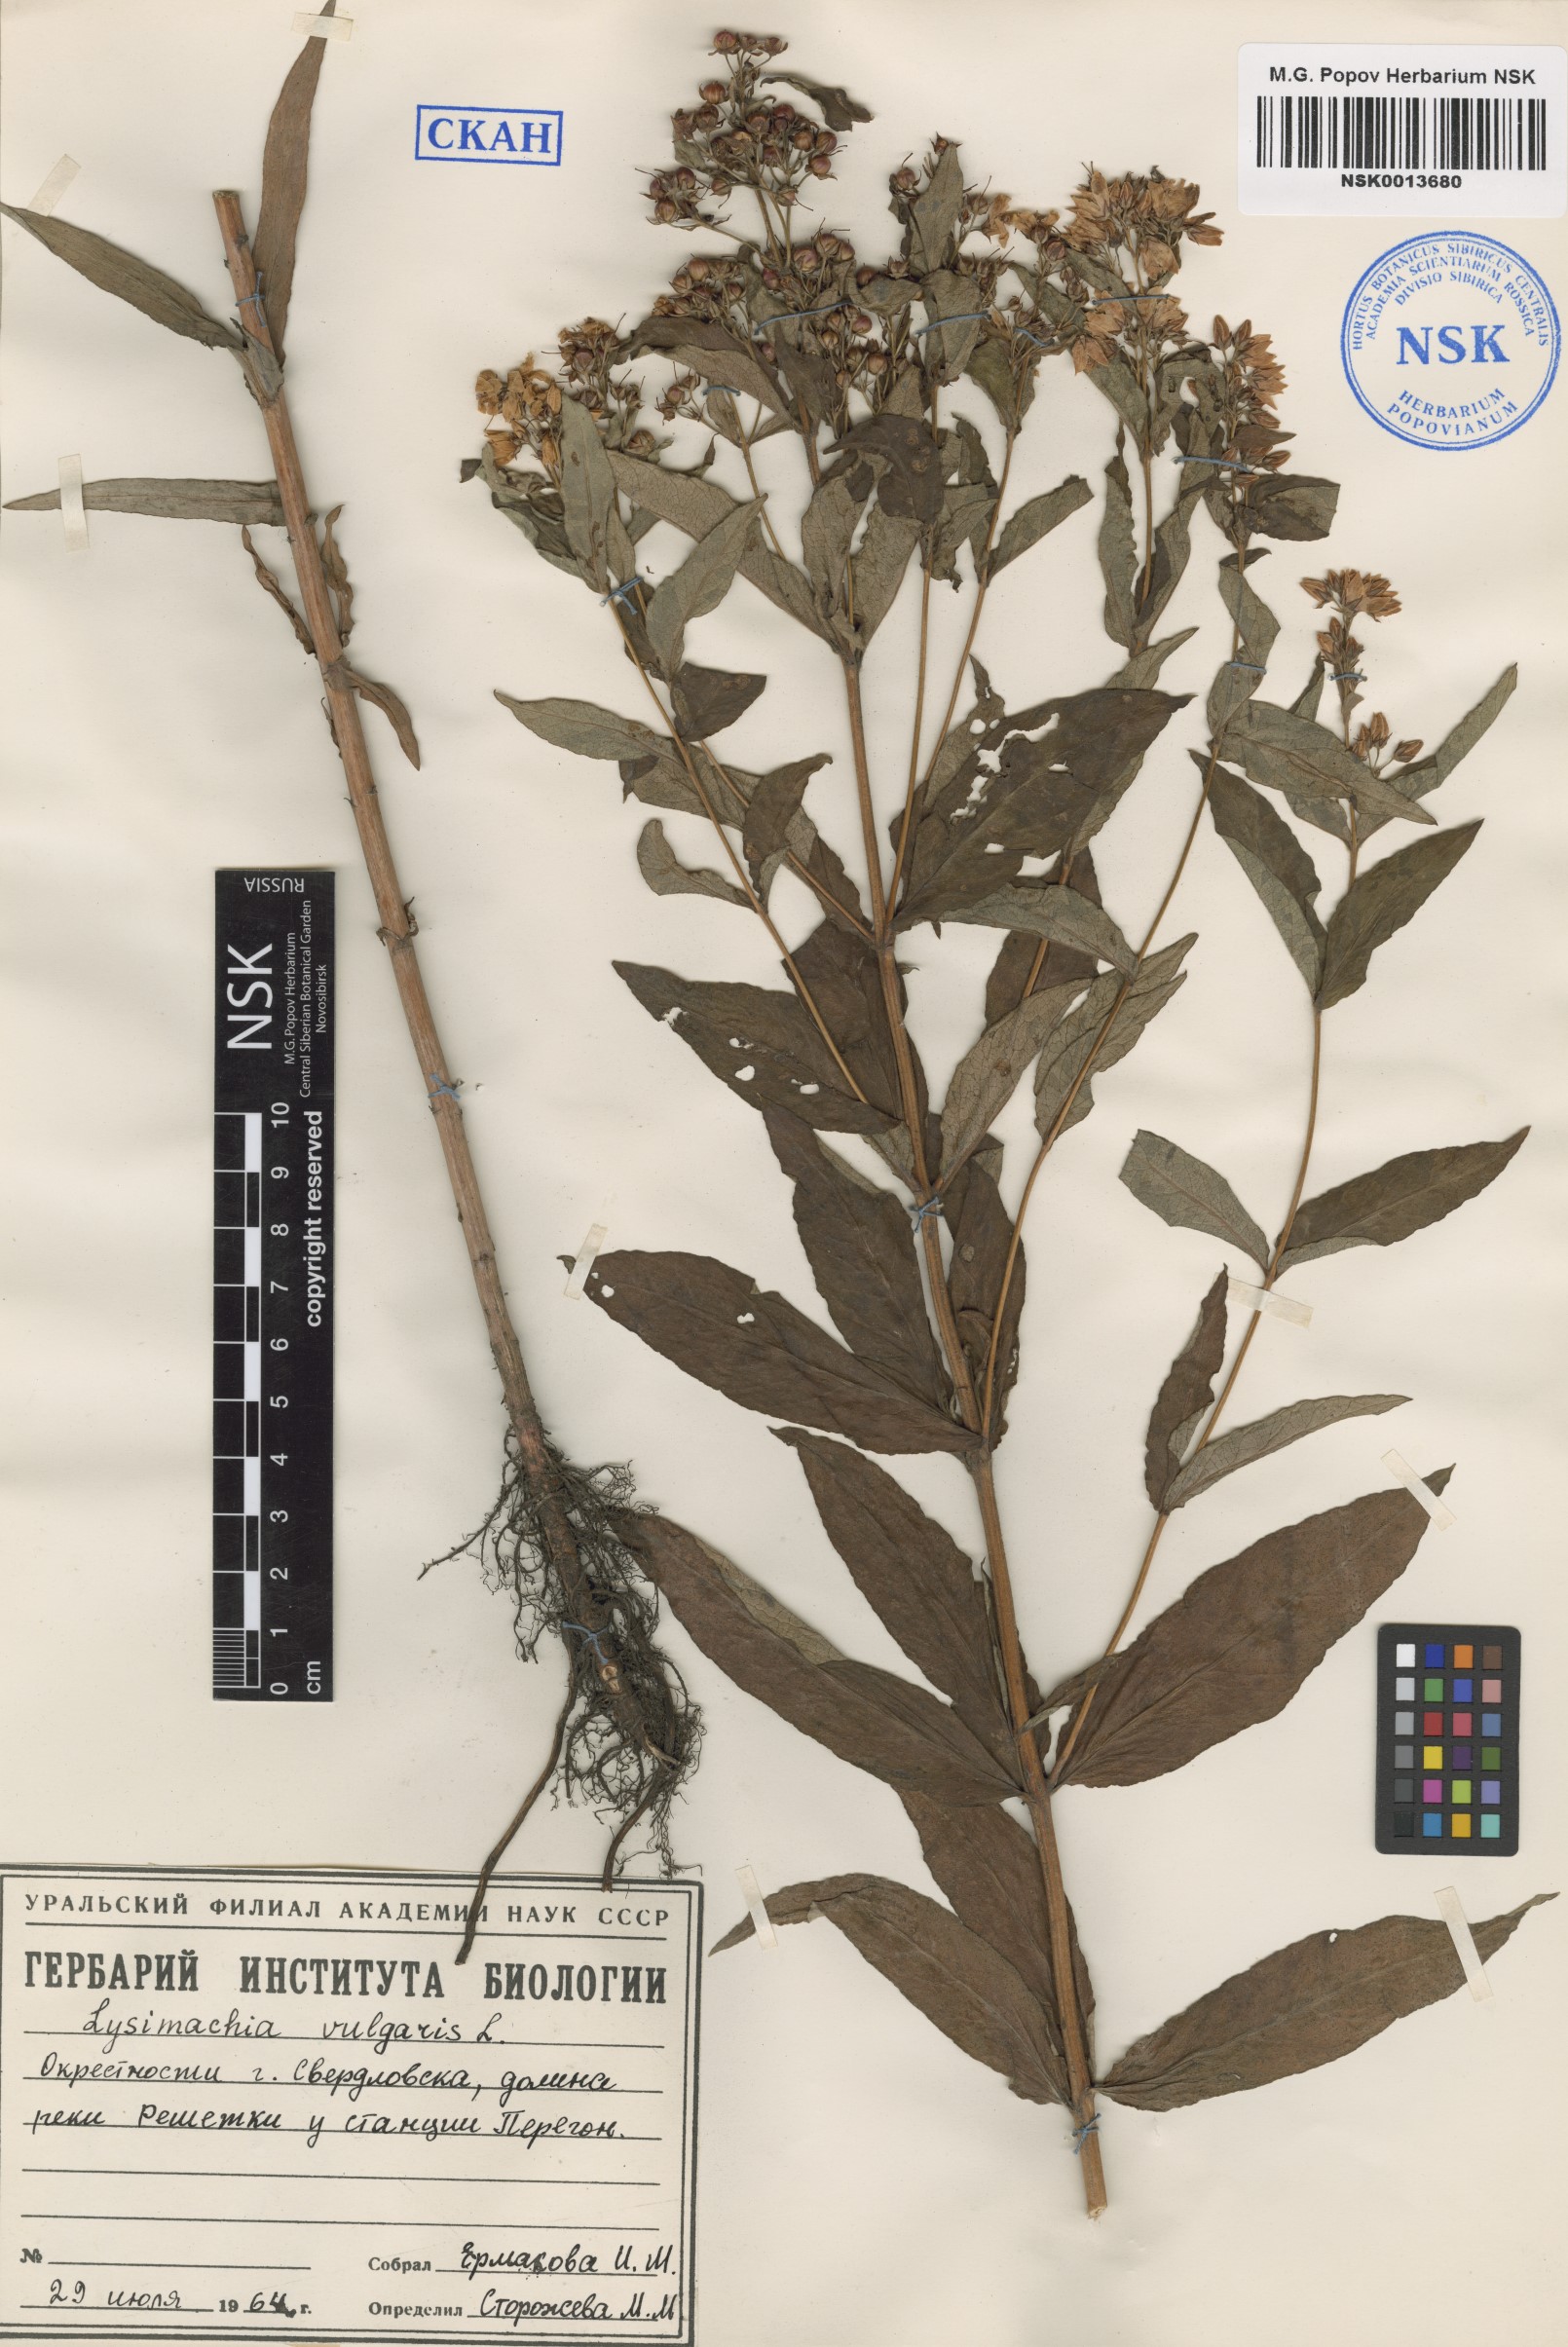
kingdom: Plantae
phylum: Tracheophyta
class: Magnoliopsida
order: Ericales
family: Primulaceae
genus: Lysimachia
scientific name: Lysimachia vulgaris
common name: Yellow loosestrife
